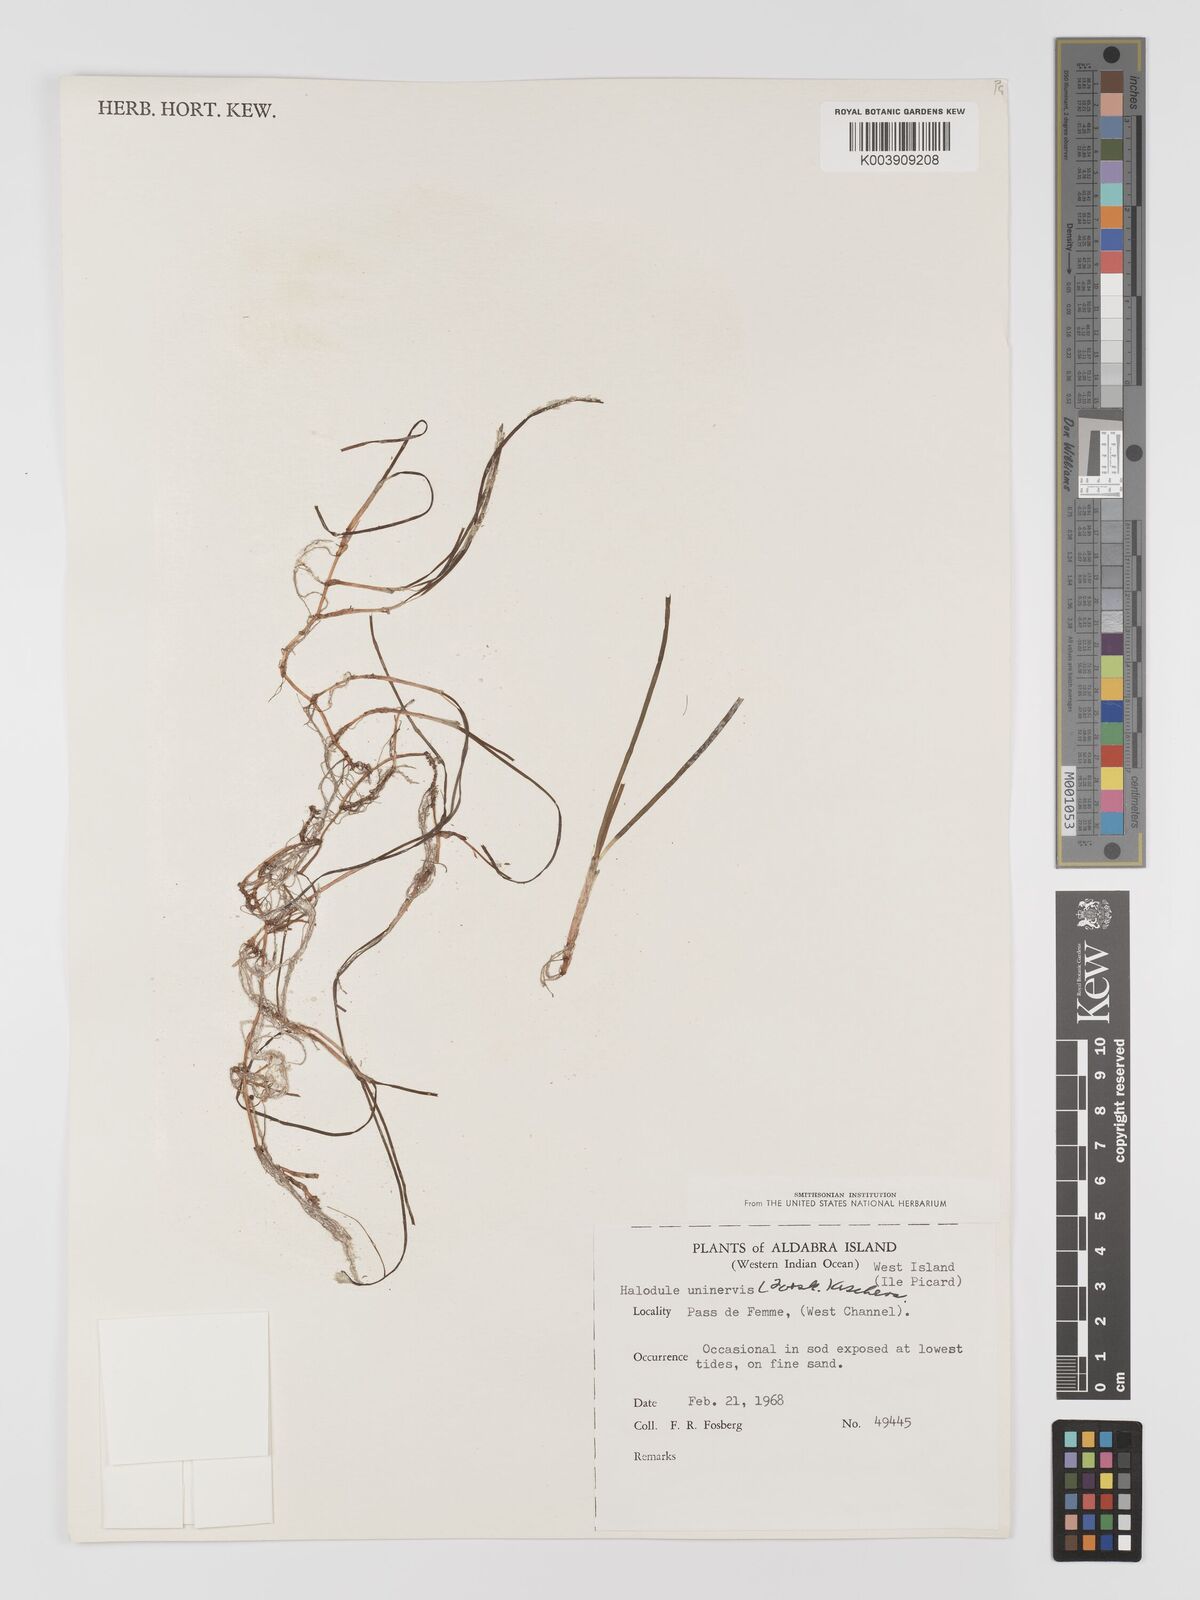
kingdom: Plantae
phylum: Tracheophyta
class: Liliopsida
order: Alismatales
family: Cymodoceaceae
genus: Halodule
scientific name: Halodule uninervis
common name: Narrowleaf seagrass
